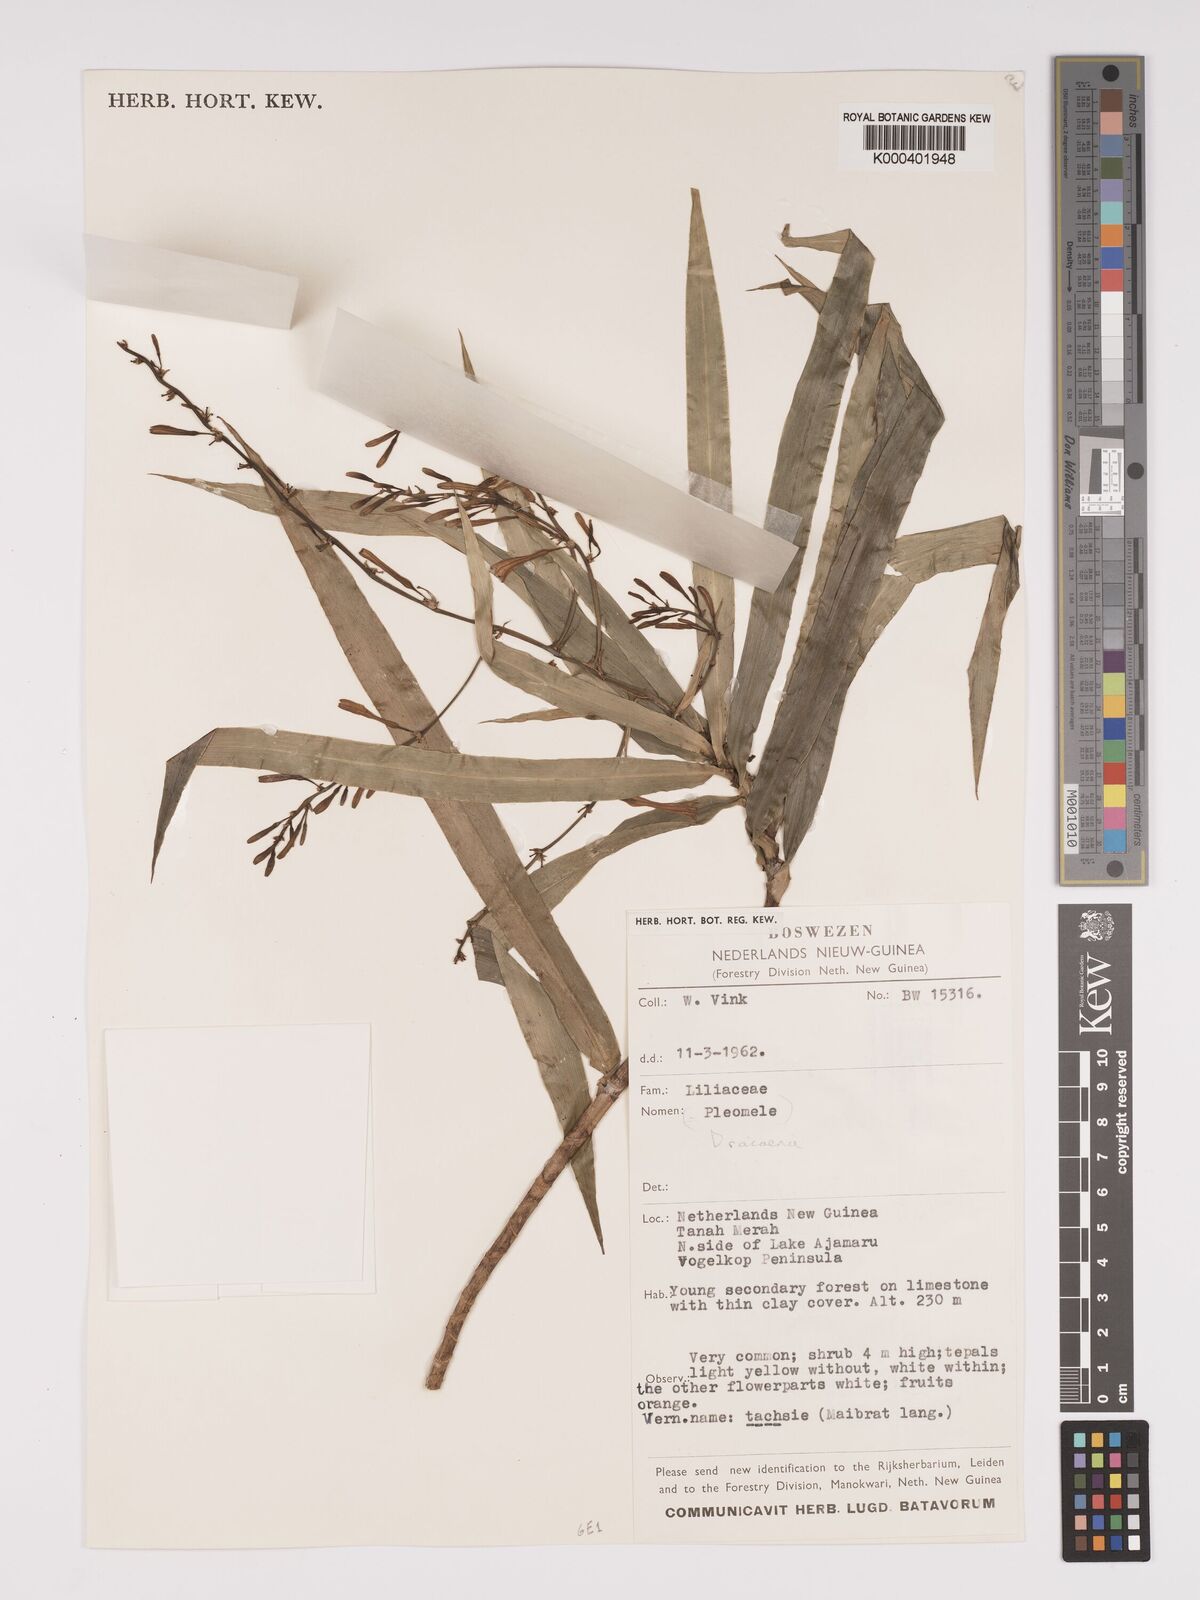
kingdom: Plantae
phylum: Tracheophyta
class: Liliopsida
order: Asparagales
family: Asparagaceae
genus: Dracaena
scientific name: Dracaena angustifolia
